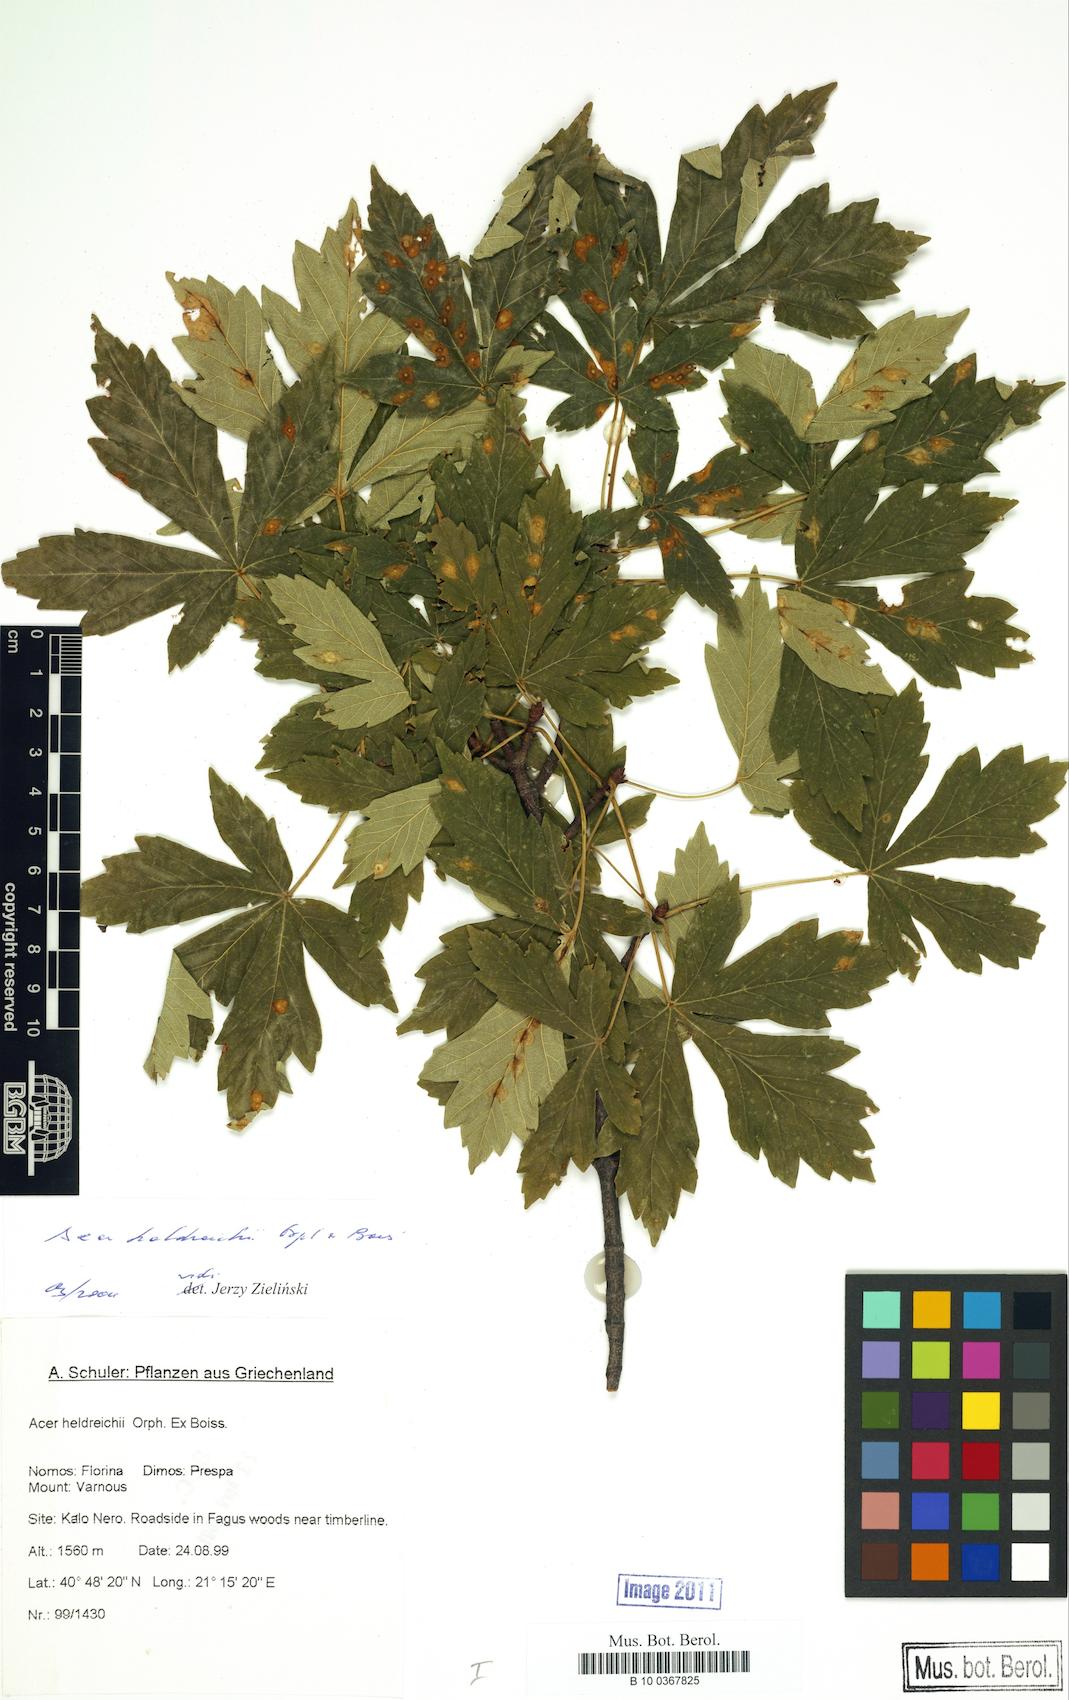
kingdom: Plantae
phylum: Tracheophyta
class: Magnoliopsida
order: Sapindales
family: Sapindaceae
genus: Acer
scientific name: Acer heldreichii
